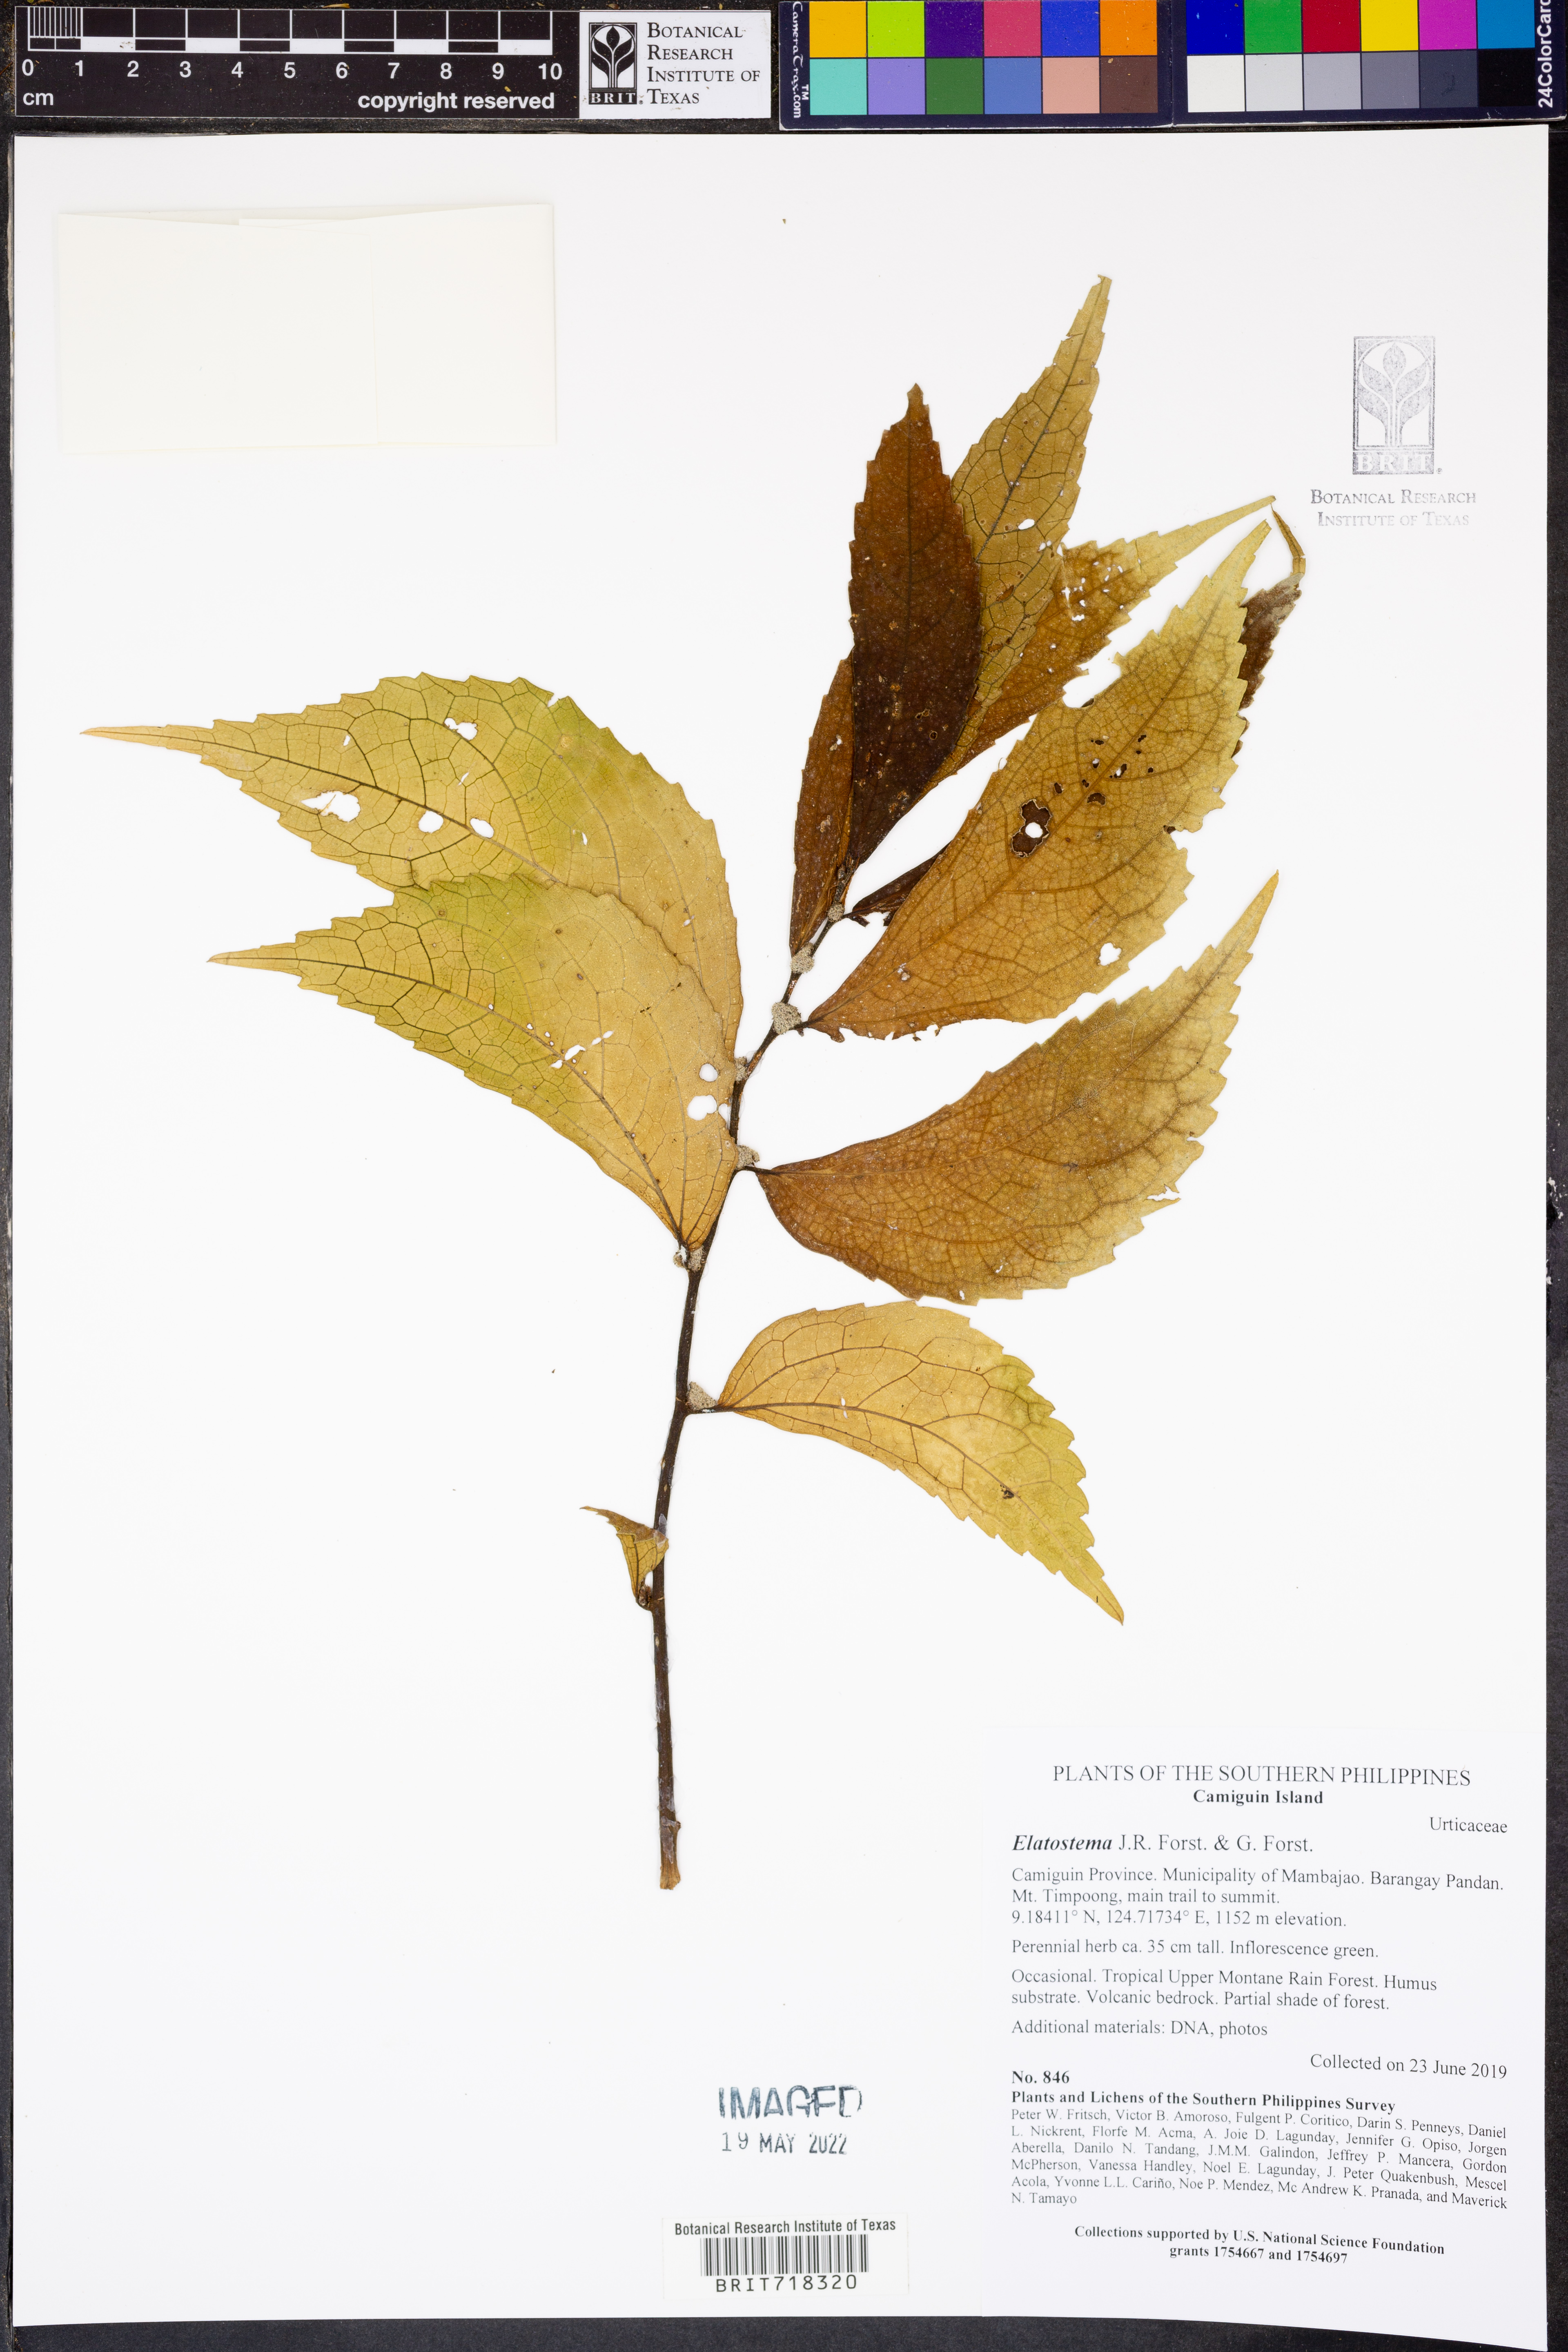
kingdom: Plantae
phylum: Tracheophyta
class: Magnoliopsida
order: Rosales
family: Urticaceae
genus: Elatostema
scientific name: Elatostema
